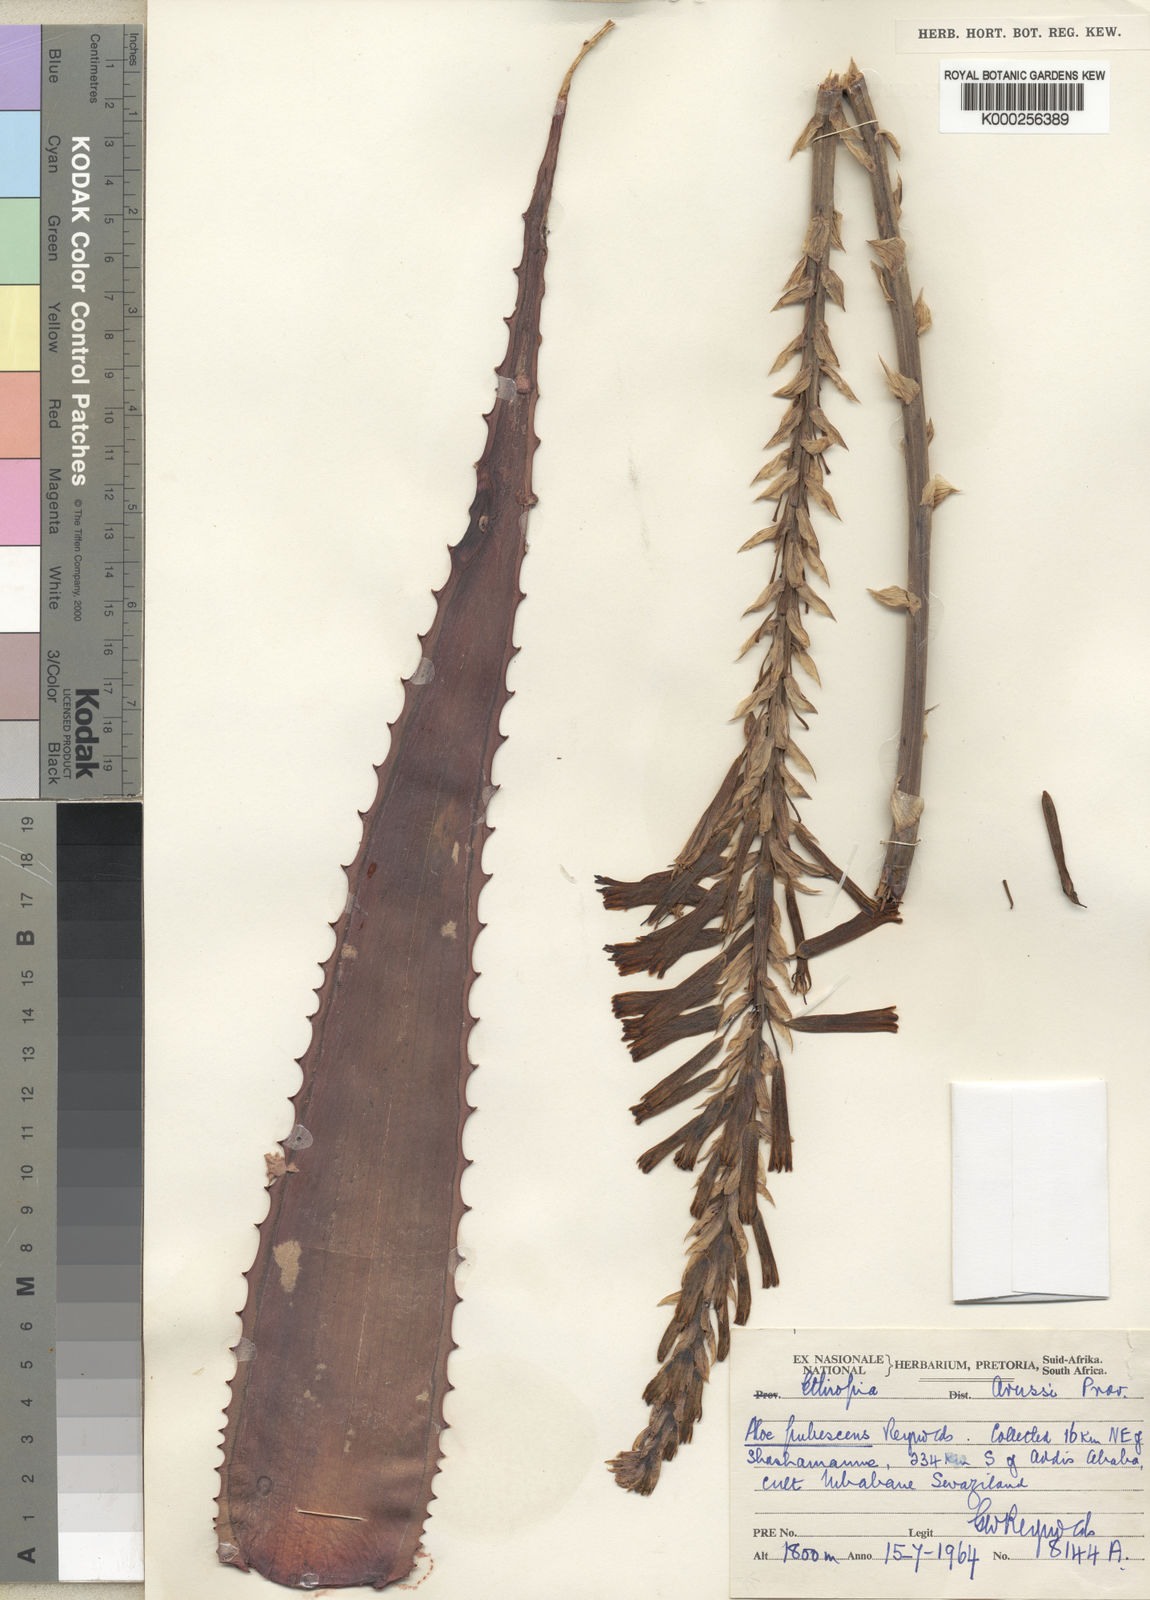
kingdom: Plantae
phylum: Tracheophyta
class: Liliopsida
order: Asparagales
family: Asphodelaceae
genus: Aloe
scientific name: Aloe pubescens
